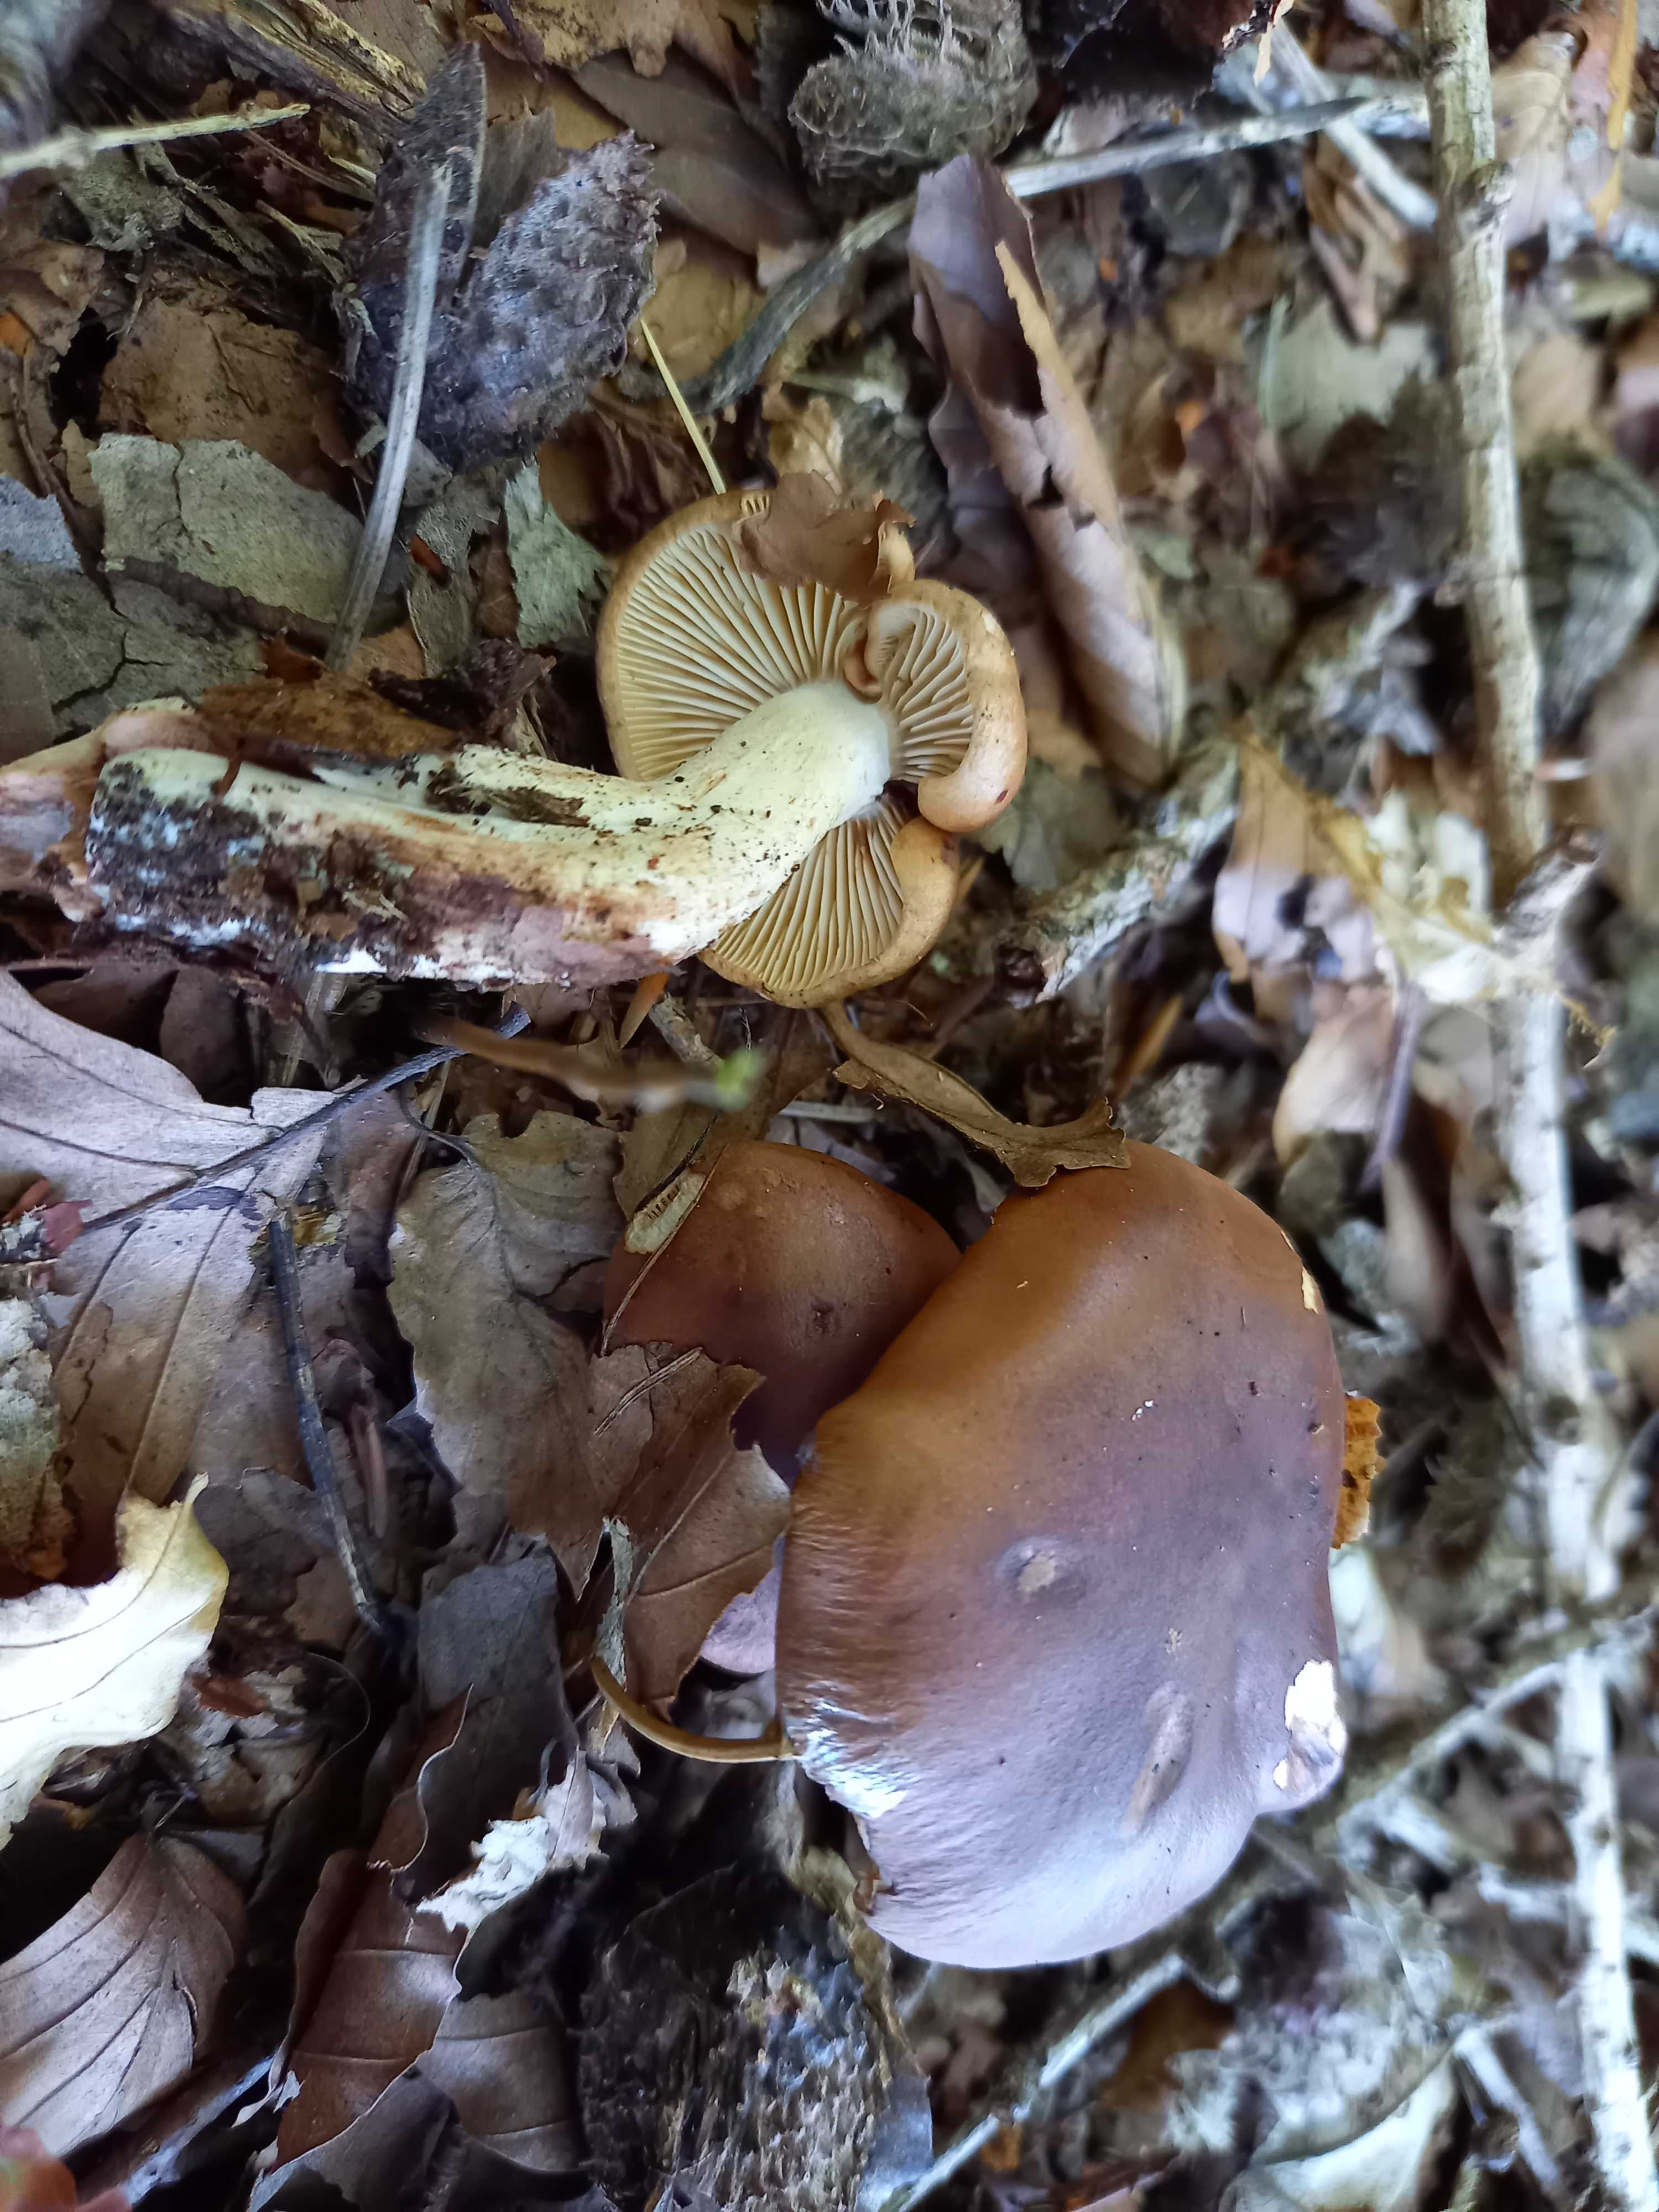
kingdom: Fungi
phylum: Basidiomycota
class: Agaricomycetes
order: Agaricales
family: Tricholomataceae
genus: Tricholoma
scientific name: Tricholoma ustale
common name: sveden ridderhat
